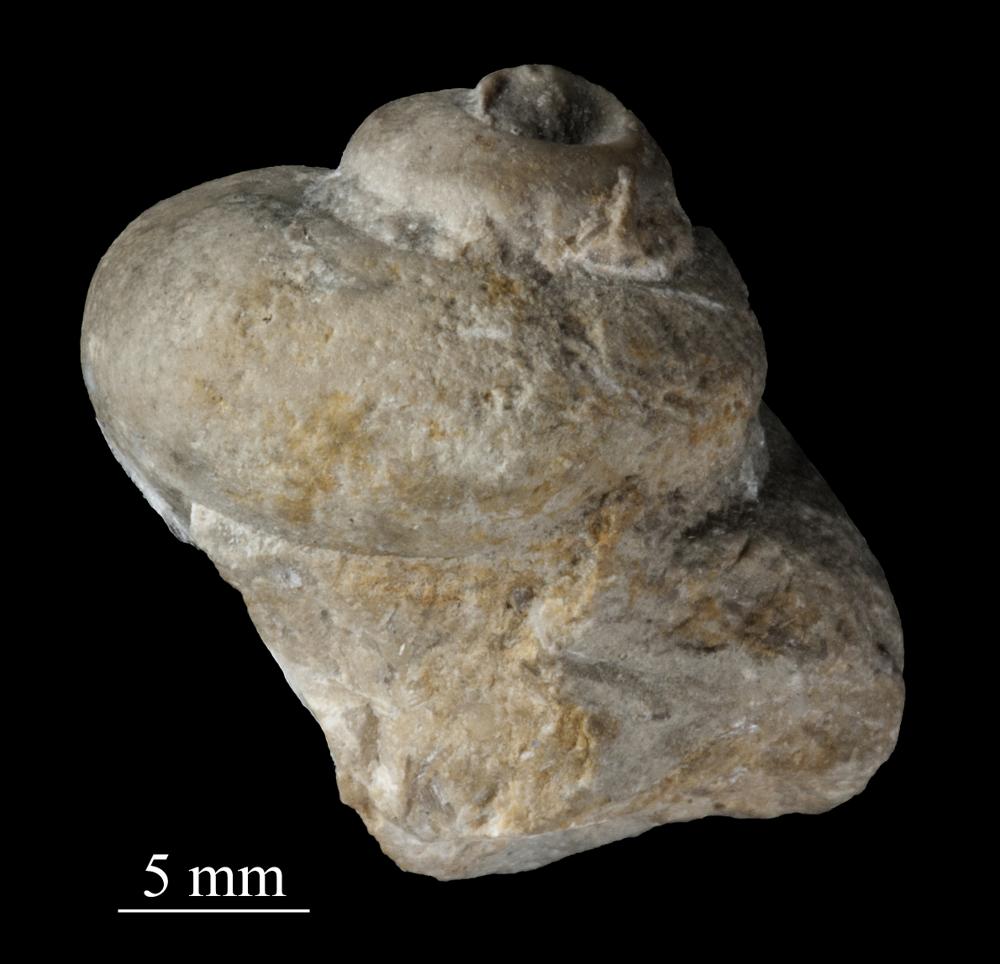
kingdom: Animalia
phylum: Mollusca
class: Gastropoda
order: Pleurotomariida
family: Gosseletinidae
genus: Euryzone
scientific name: Euryzone
